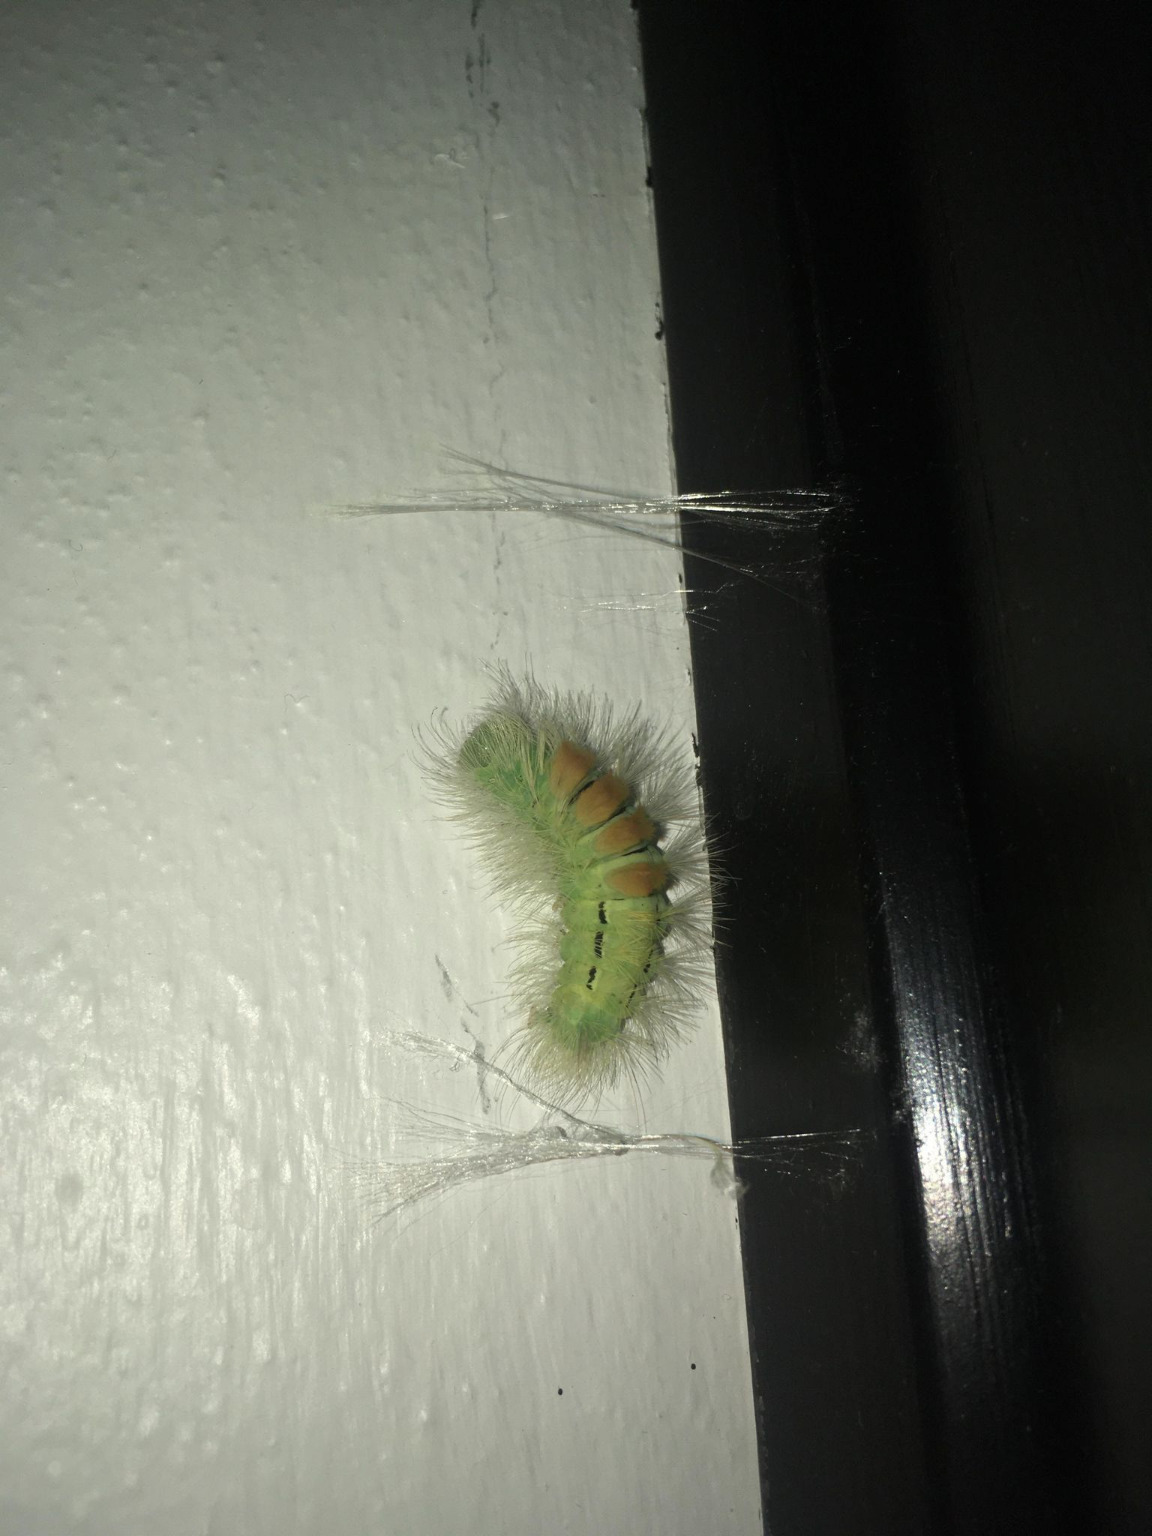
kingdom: Animalia
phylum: Arthropoda
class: Insecta
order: Lepidoptera
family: Erebidae
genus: Calliteara
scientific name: Calliteara pudibunda
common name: Bøgenonne
